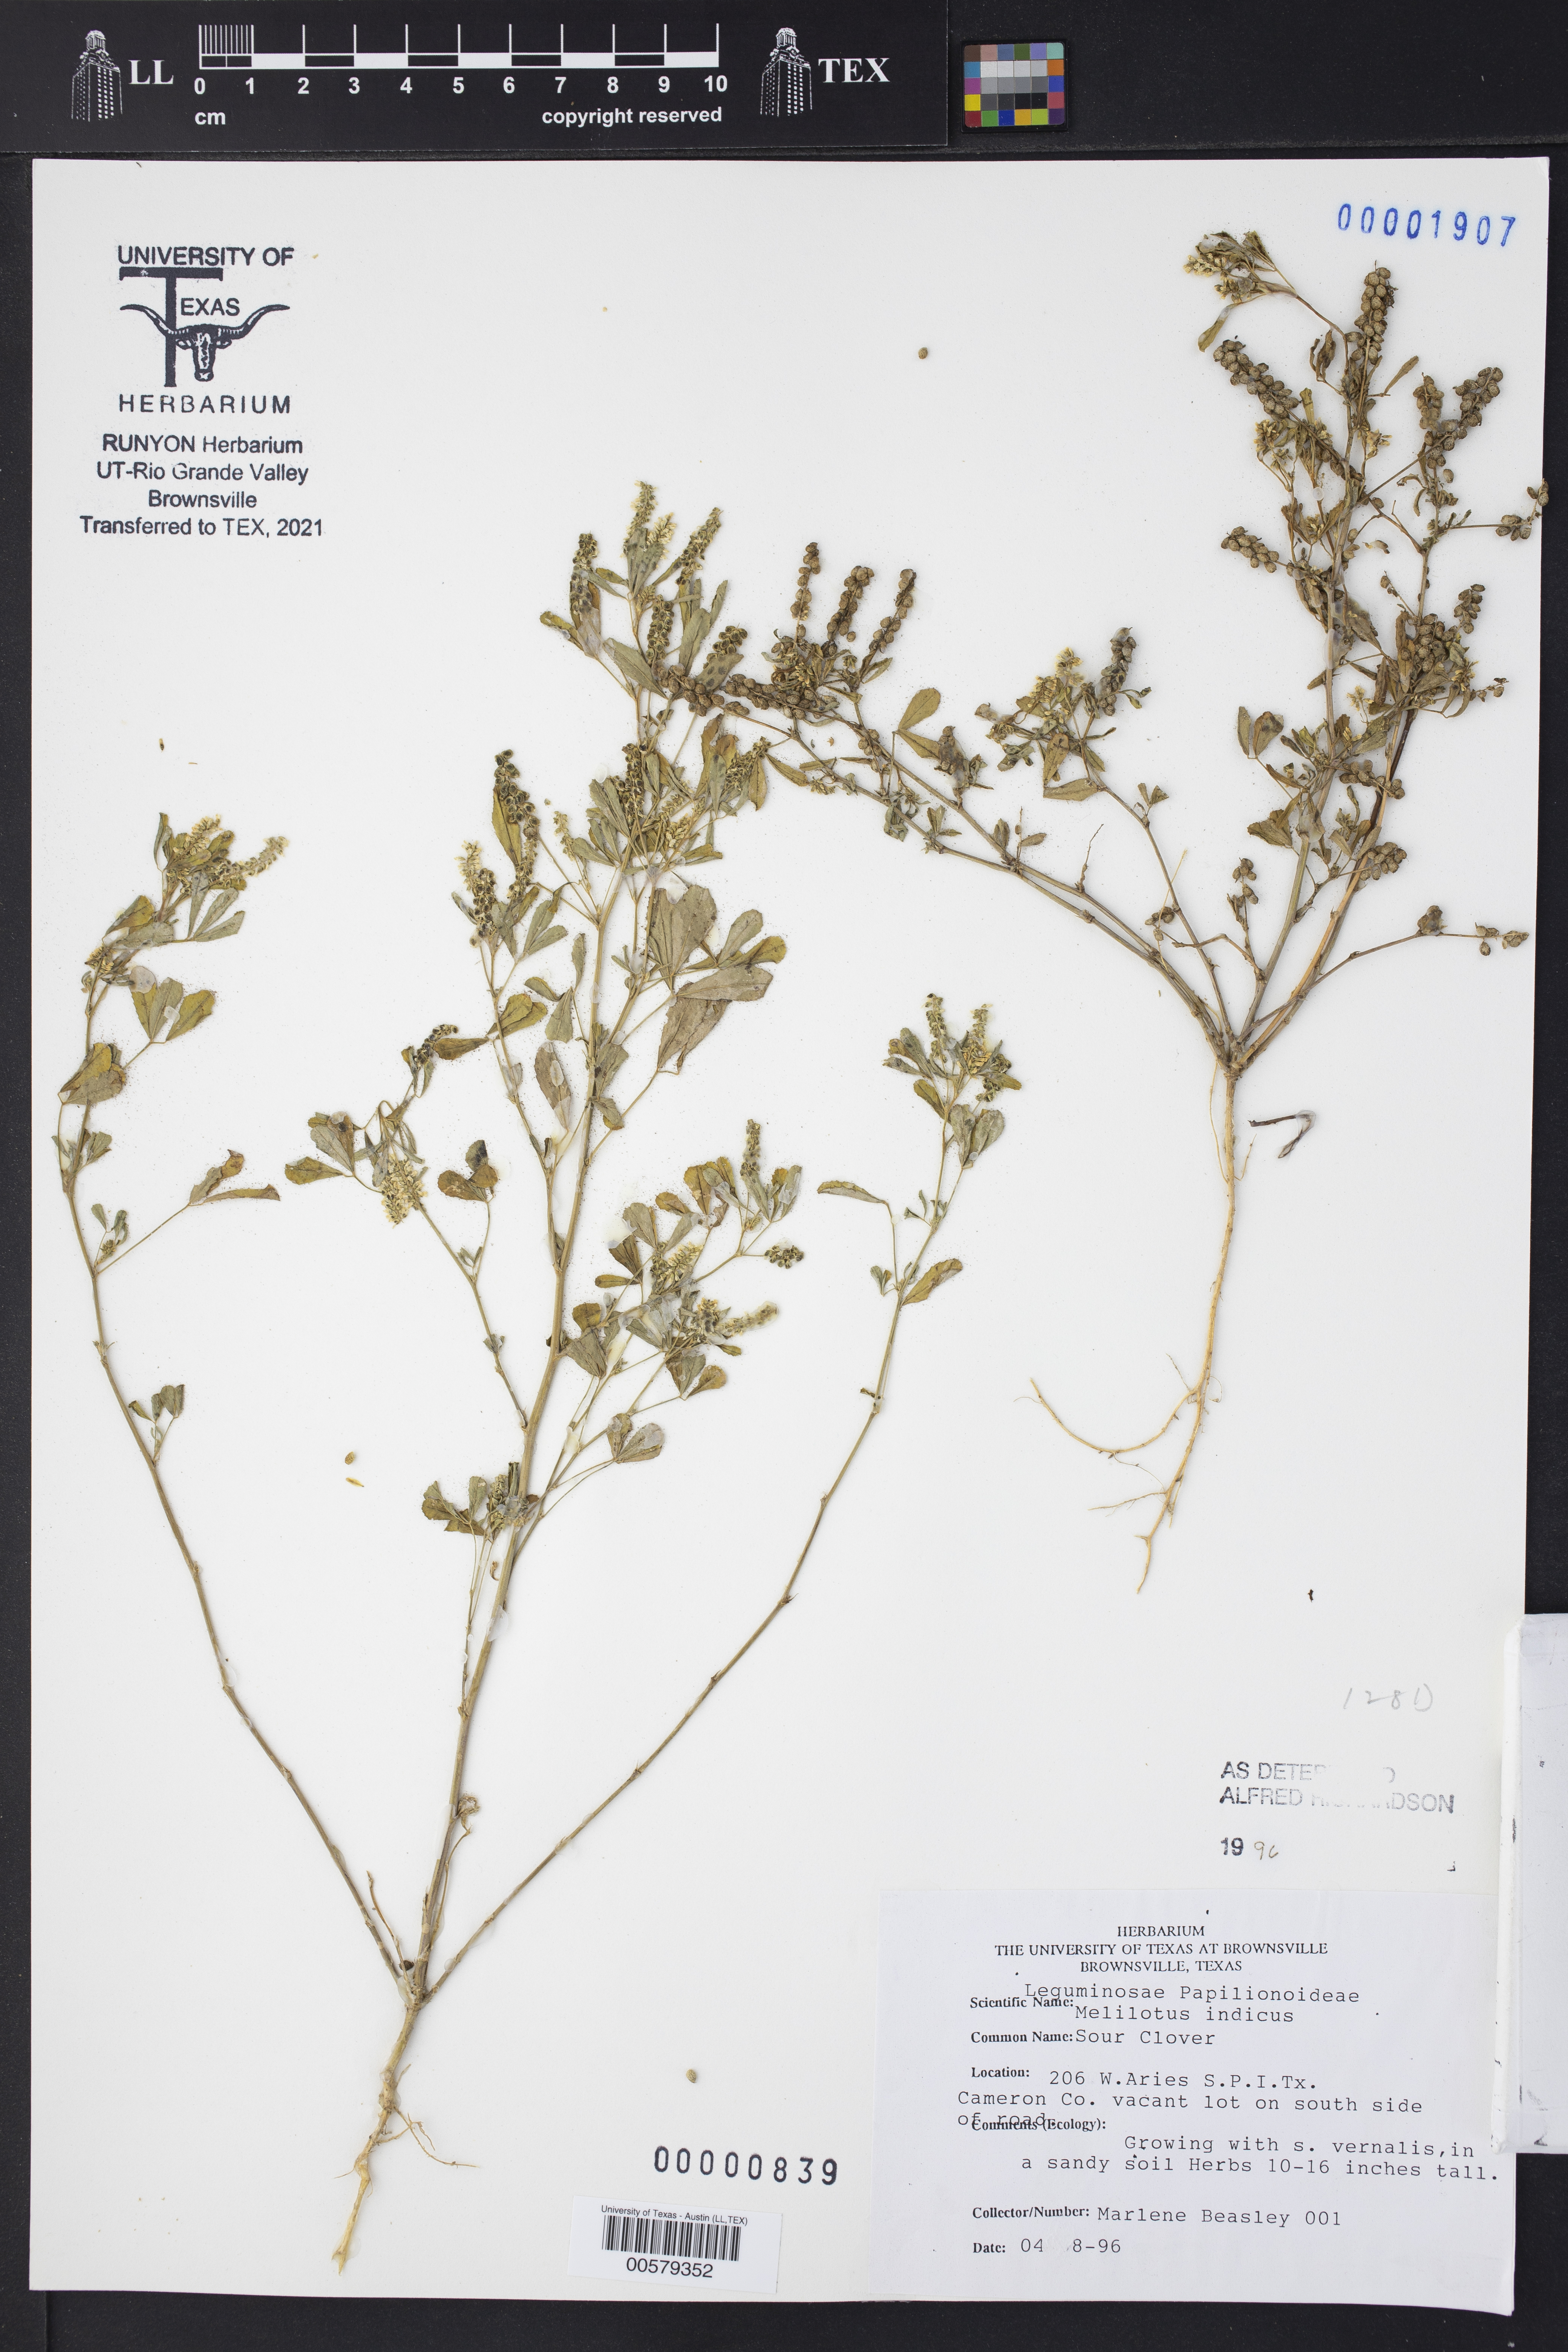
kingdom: Plantae
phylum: Tracheophyta
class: Magnoliopsida
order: Fabales
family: Fabaceae
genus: Melilotus
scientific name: Melilotus indicus
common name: Small melilot
